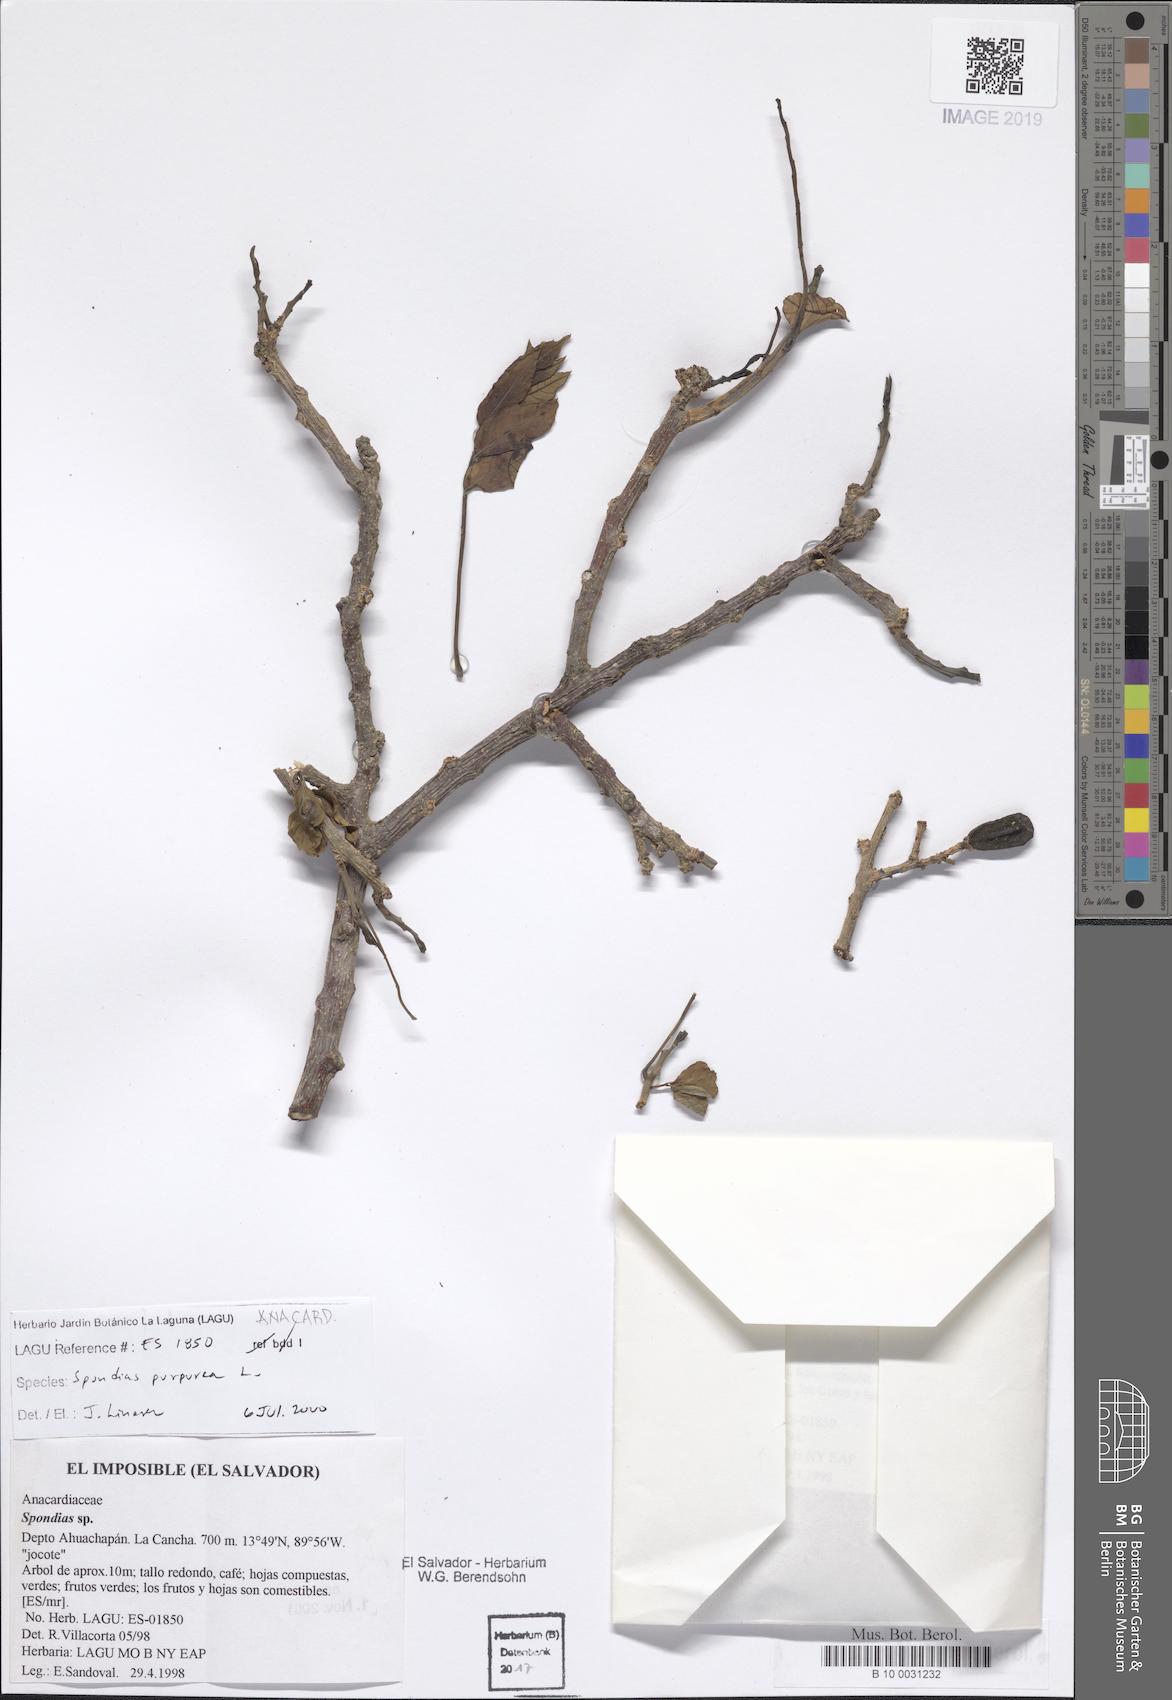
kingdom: Plantae
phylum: Tracheophyta
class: Magnoliopsida
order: Sapindales
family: Anacardiaceae
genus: Spondias
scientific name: Spondias purpurea
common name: Purple mombin
